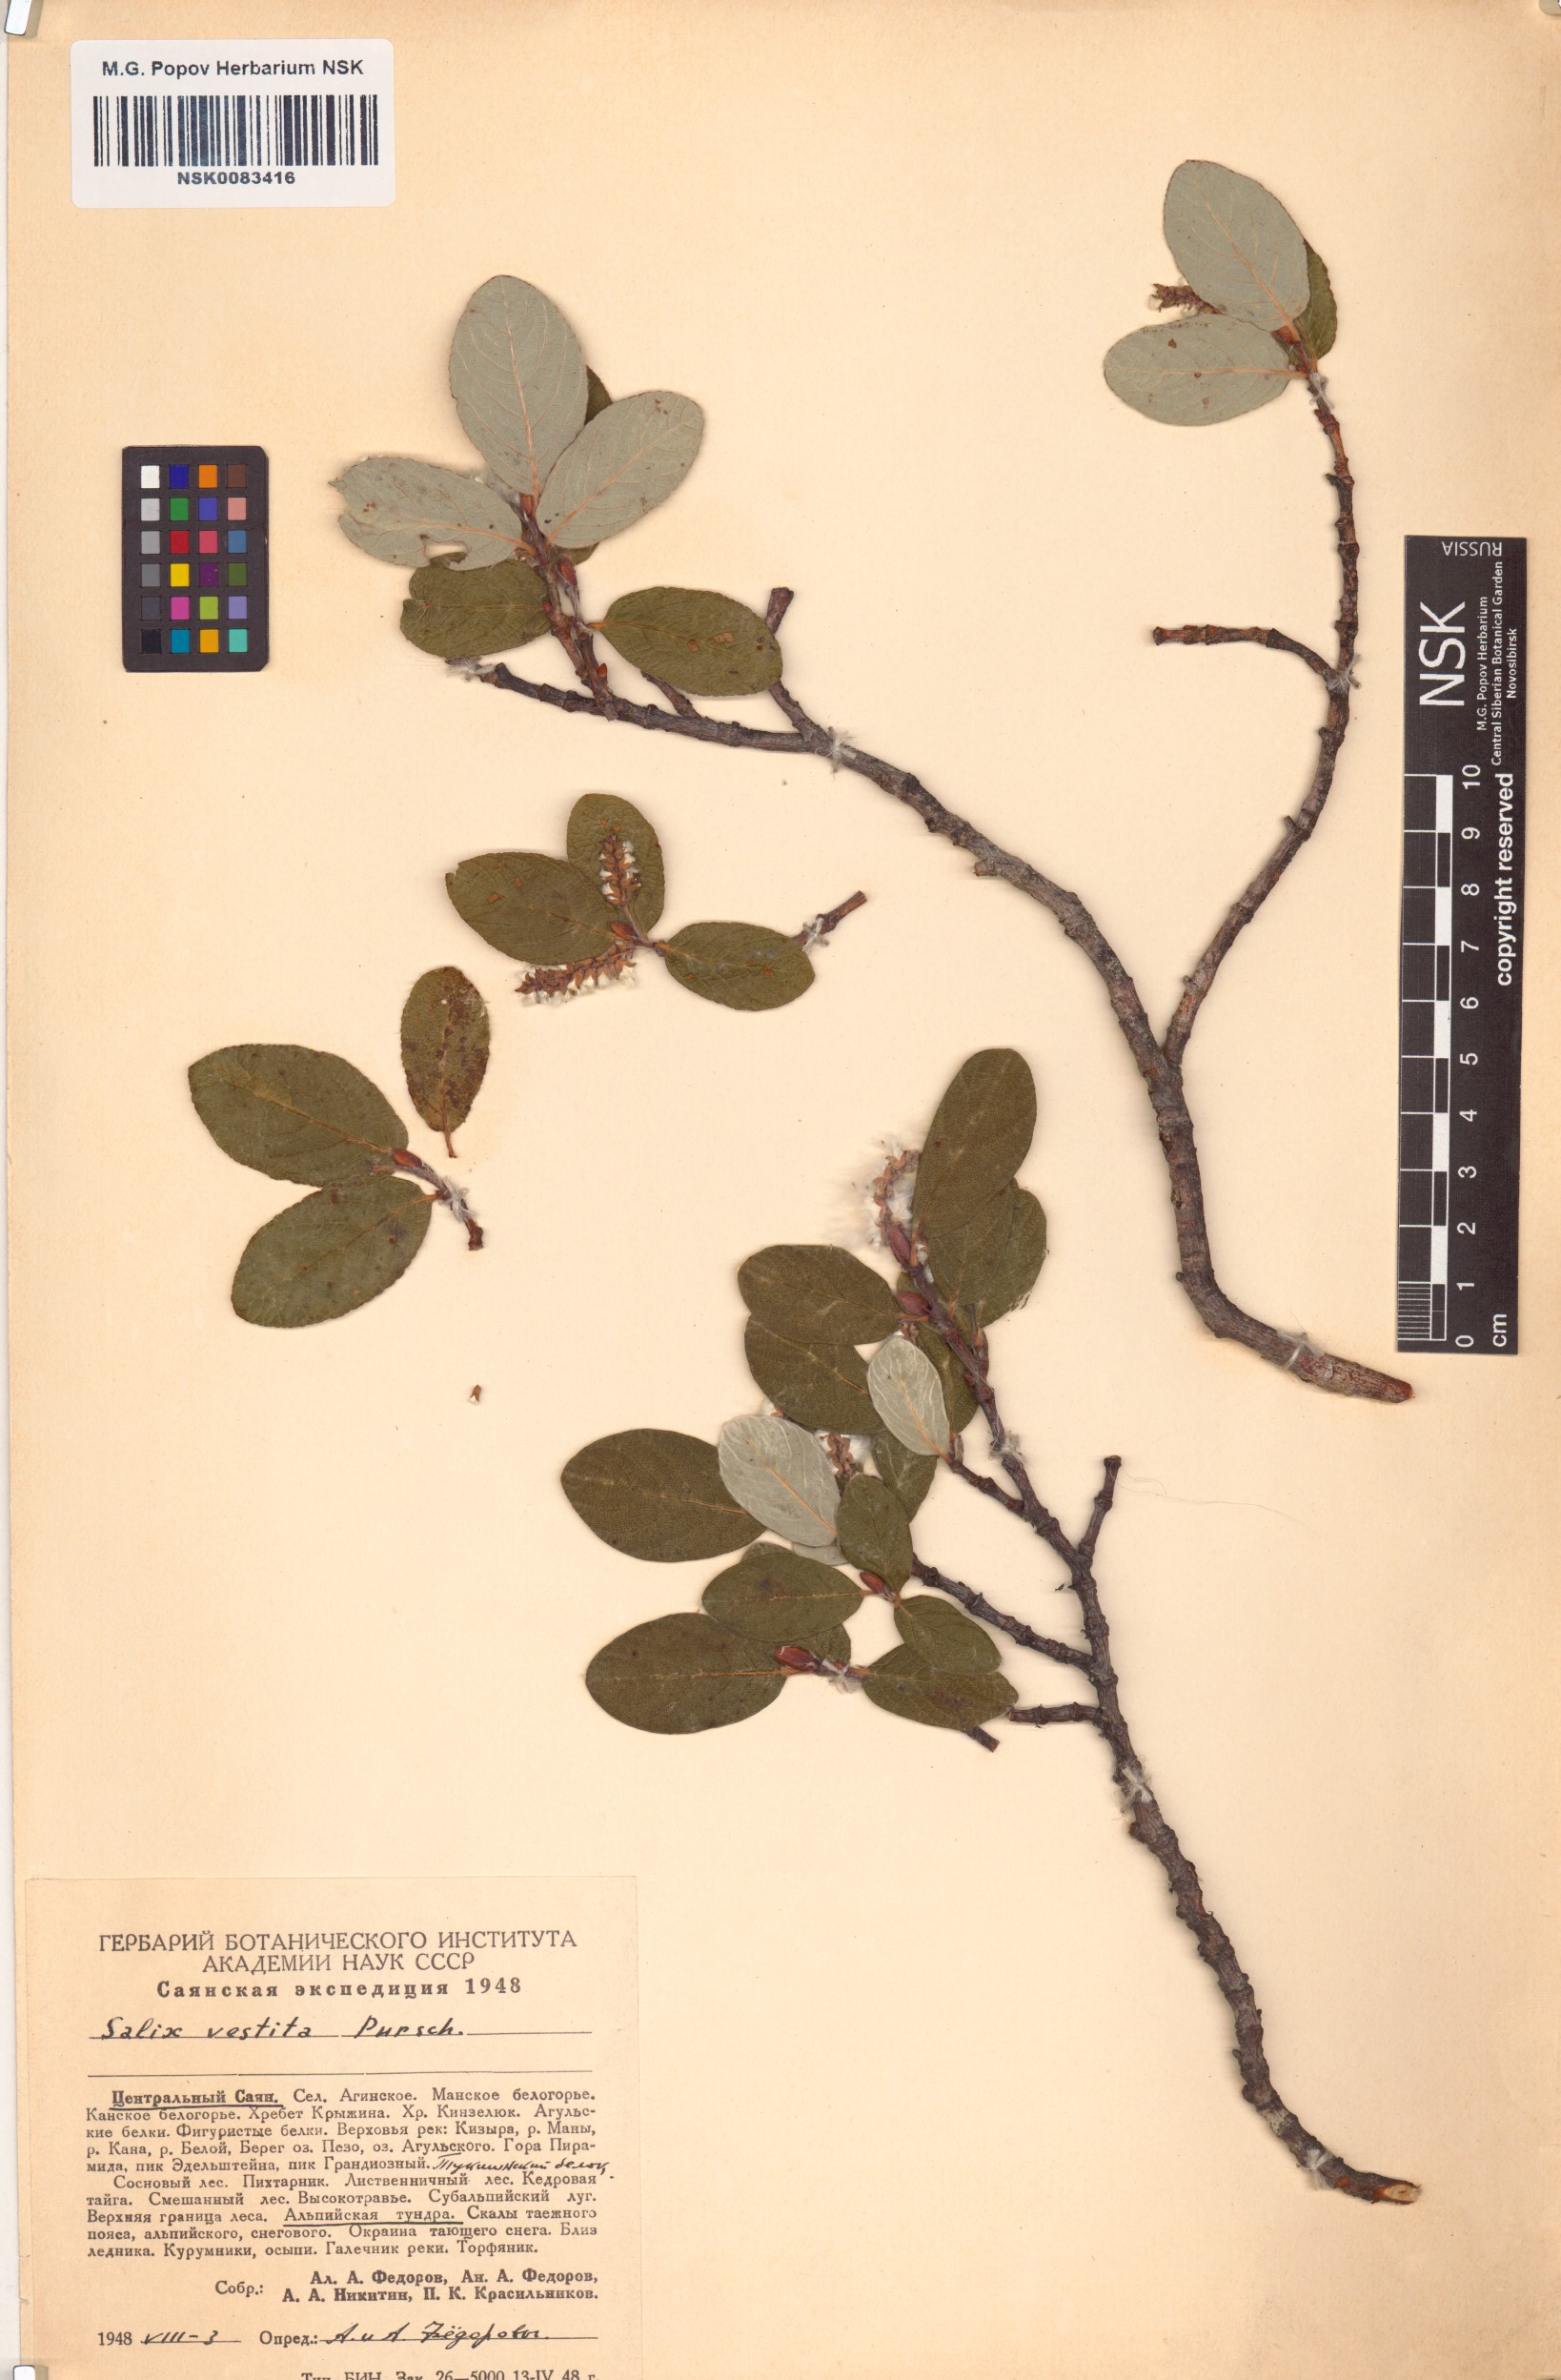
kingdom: Plantae
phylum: Tracheophyta
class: Magnoliopsida
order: Malpighiales
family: Salicaceae
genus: Salix
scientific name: Salix vestita
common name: Hairy willow
